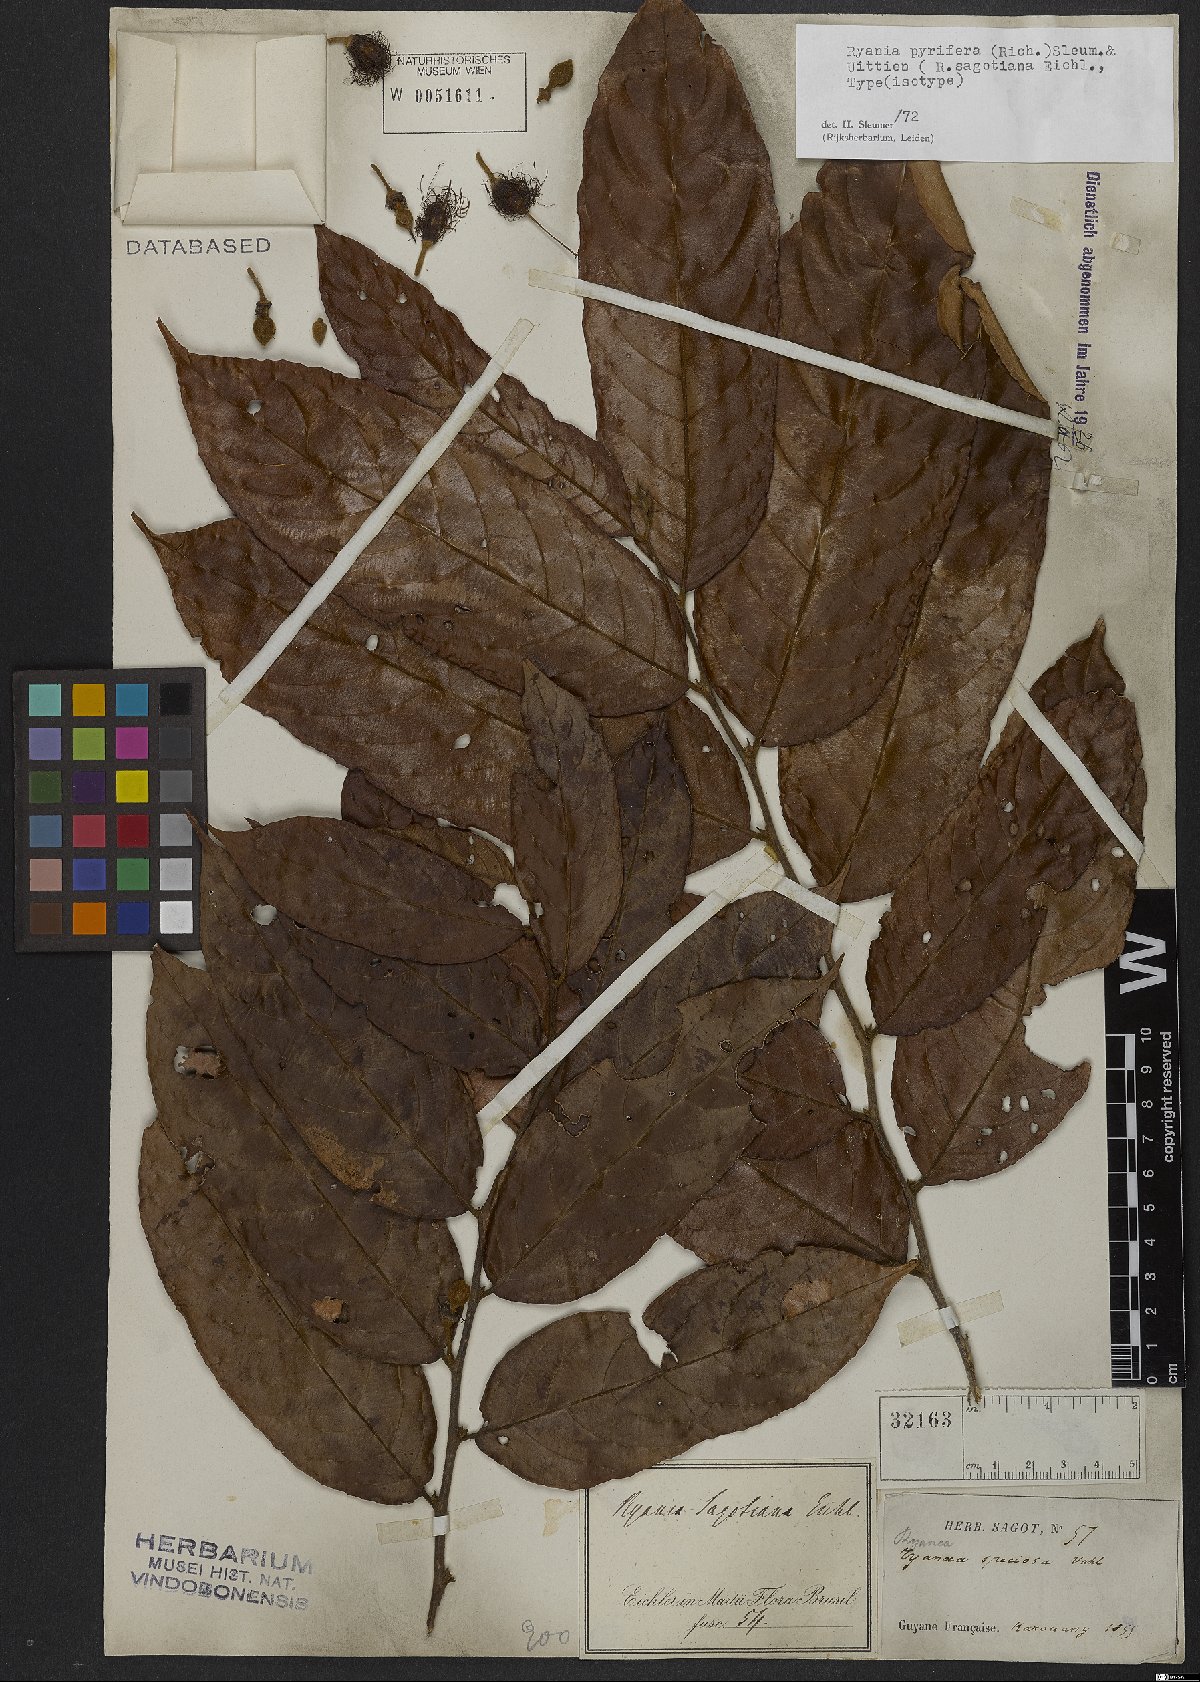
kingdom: Plantae
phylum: Tracheophyta
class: Magnoliopsida
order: Malpighiales
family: Salicaceae
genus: Ryania
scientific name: Ryania pyrifera
